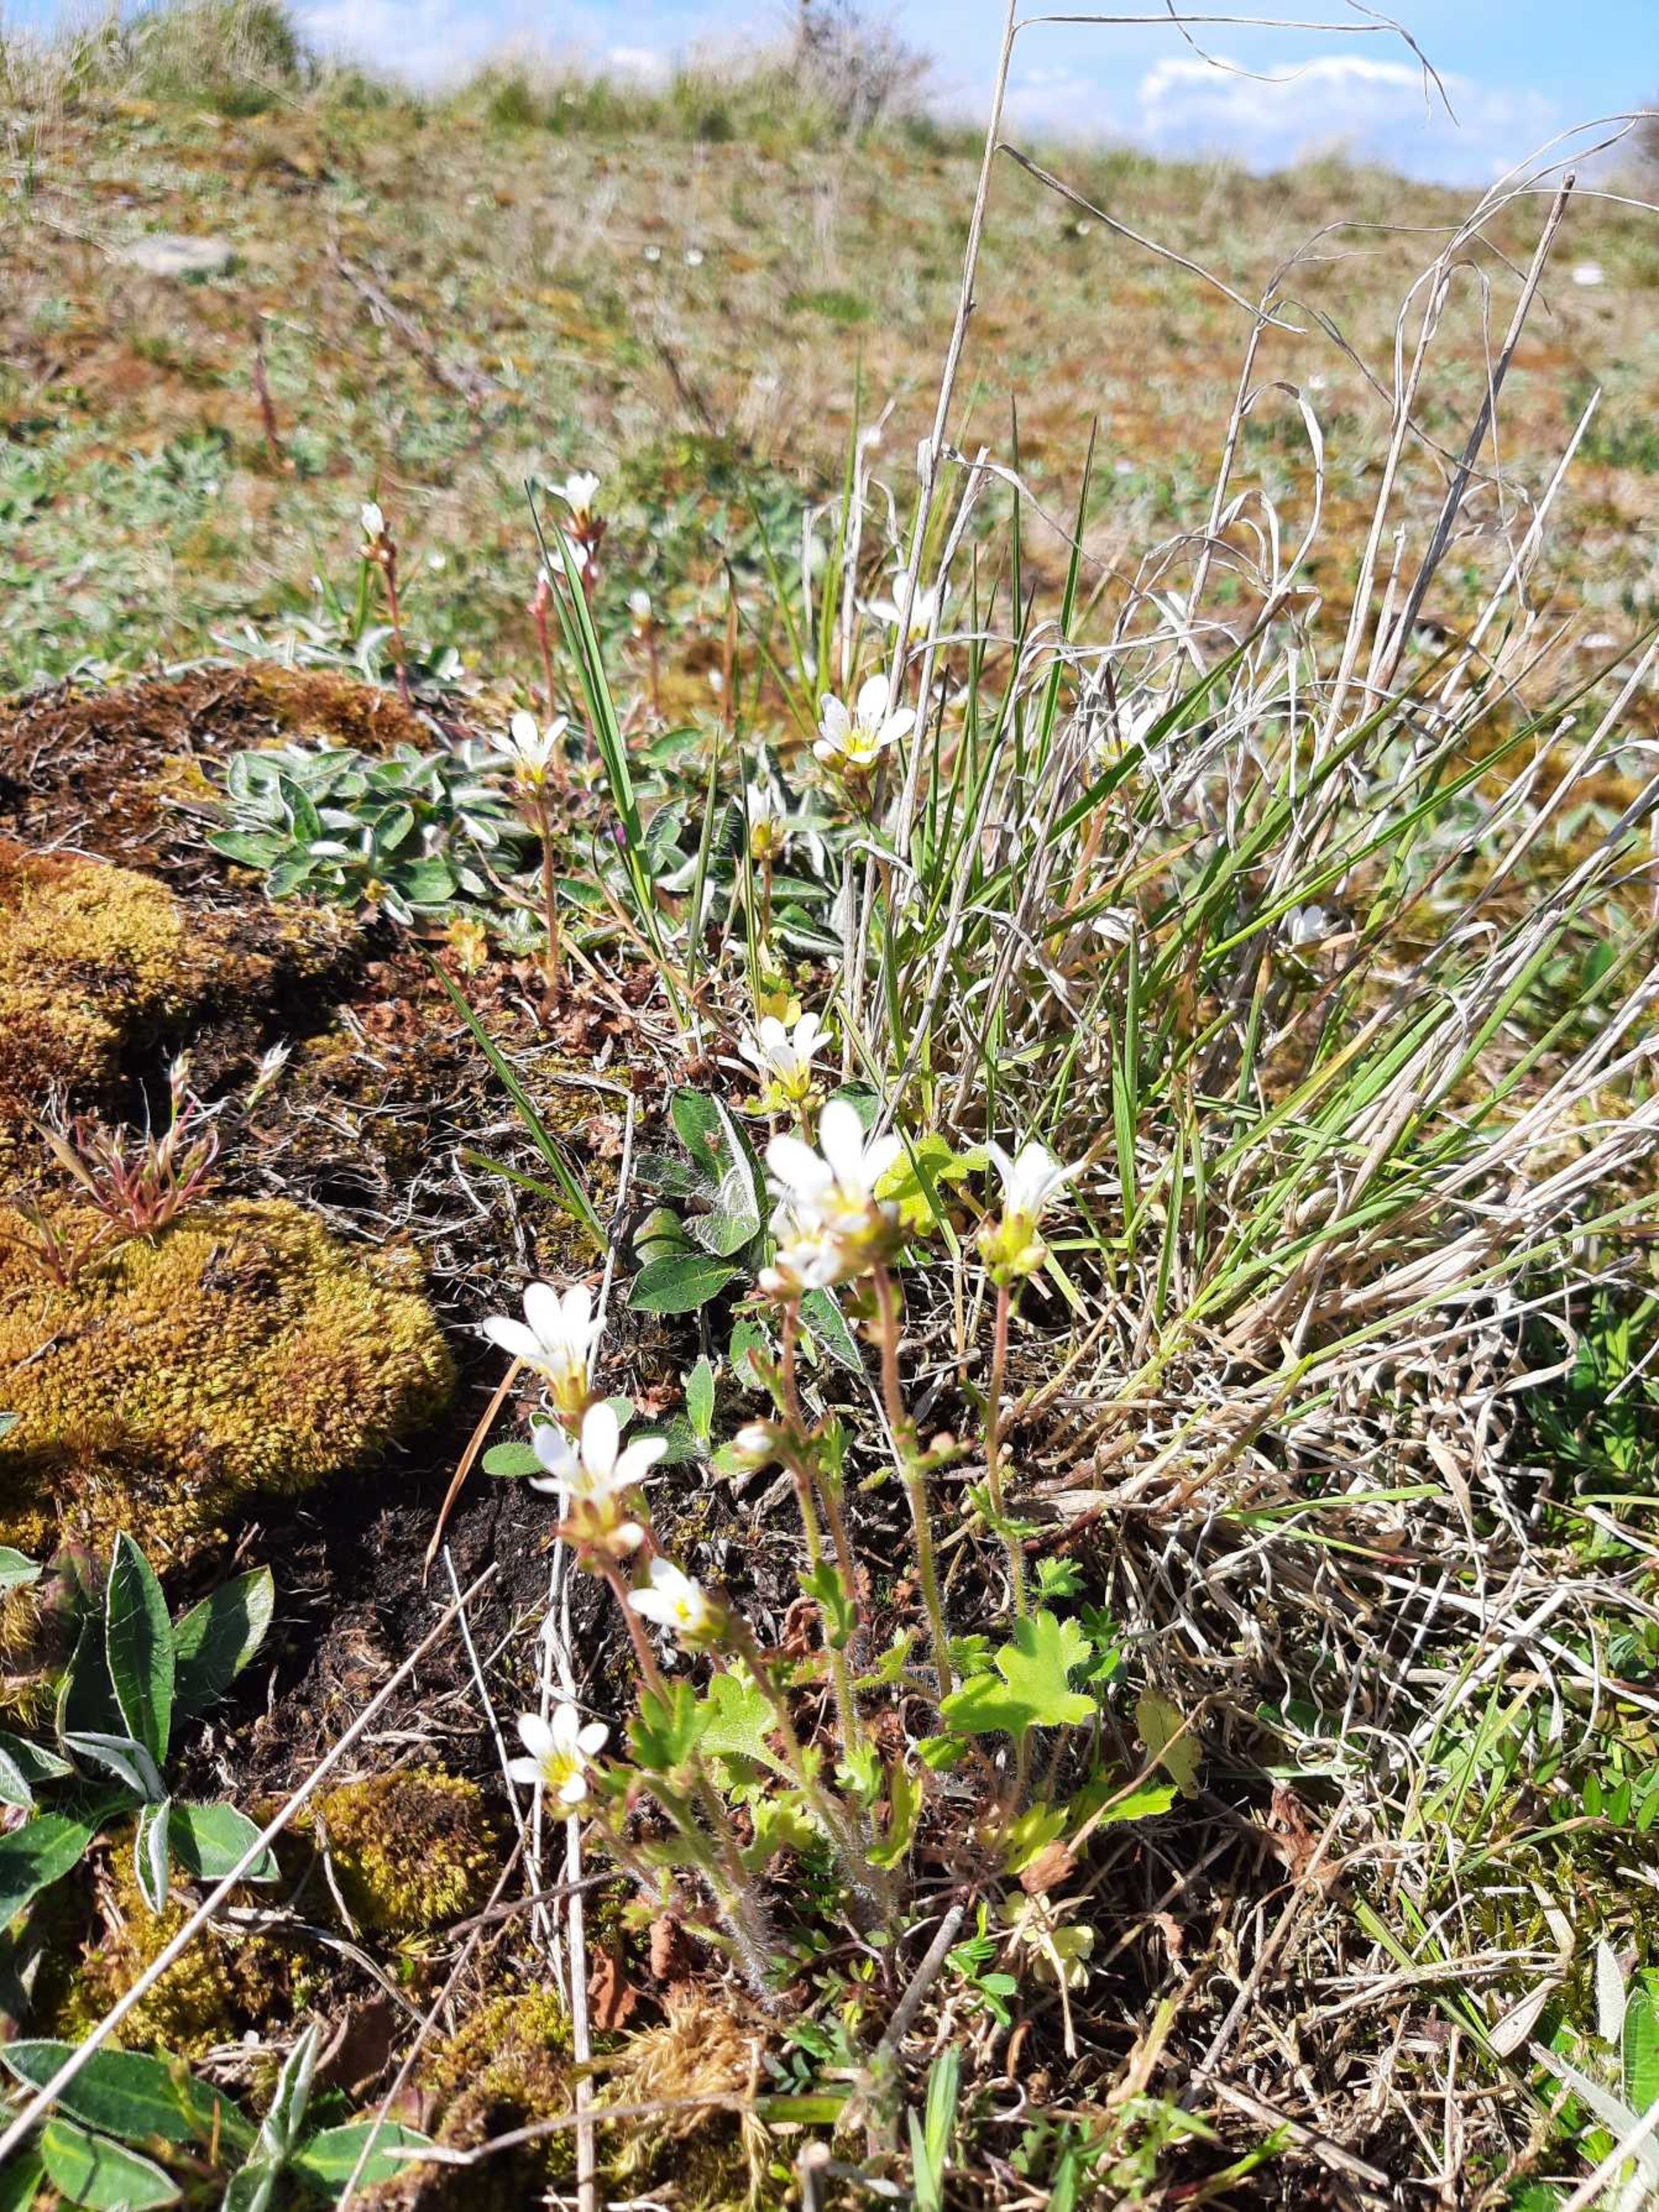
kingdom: Plantae
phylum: Tracheophyta
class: Magnoliopsida
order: Saxifragales
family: Saxifragaceae
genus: Saxifraga
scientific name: Saxifraga granulata
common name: Kornet stenbræk
